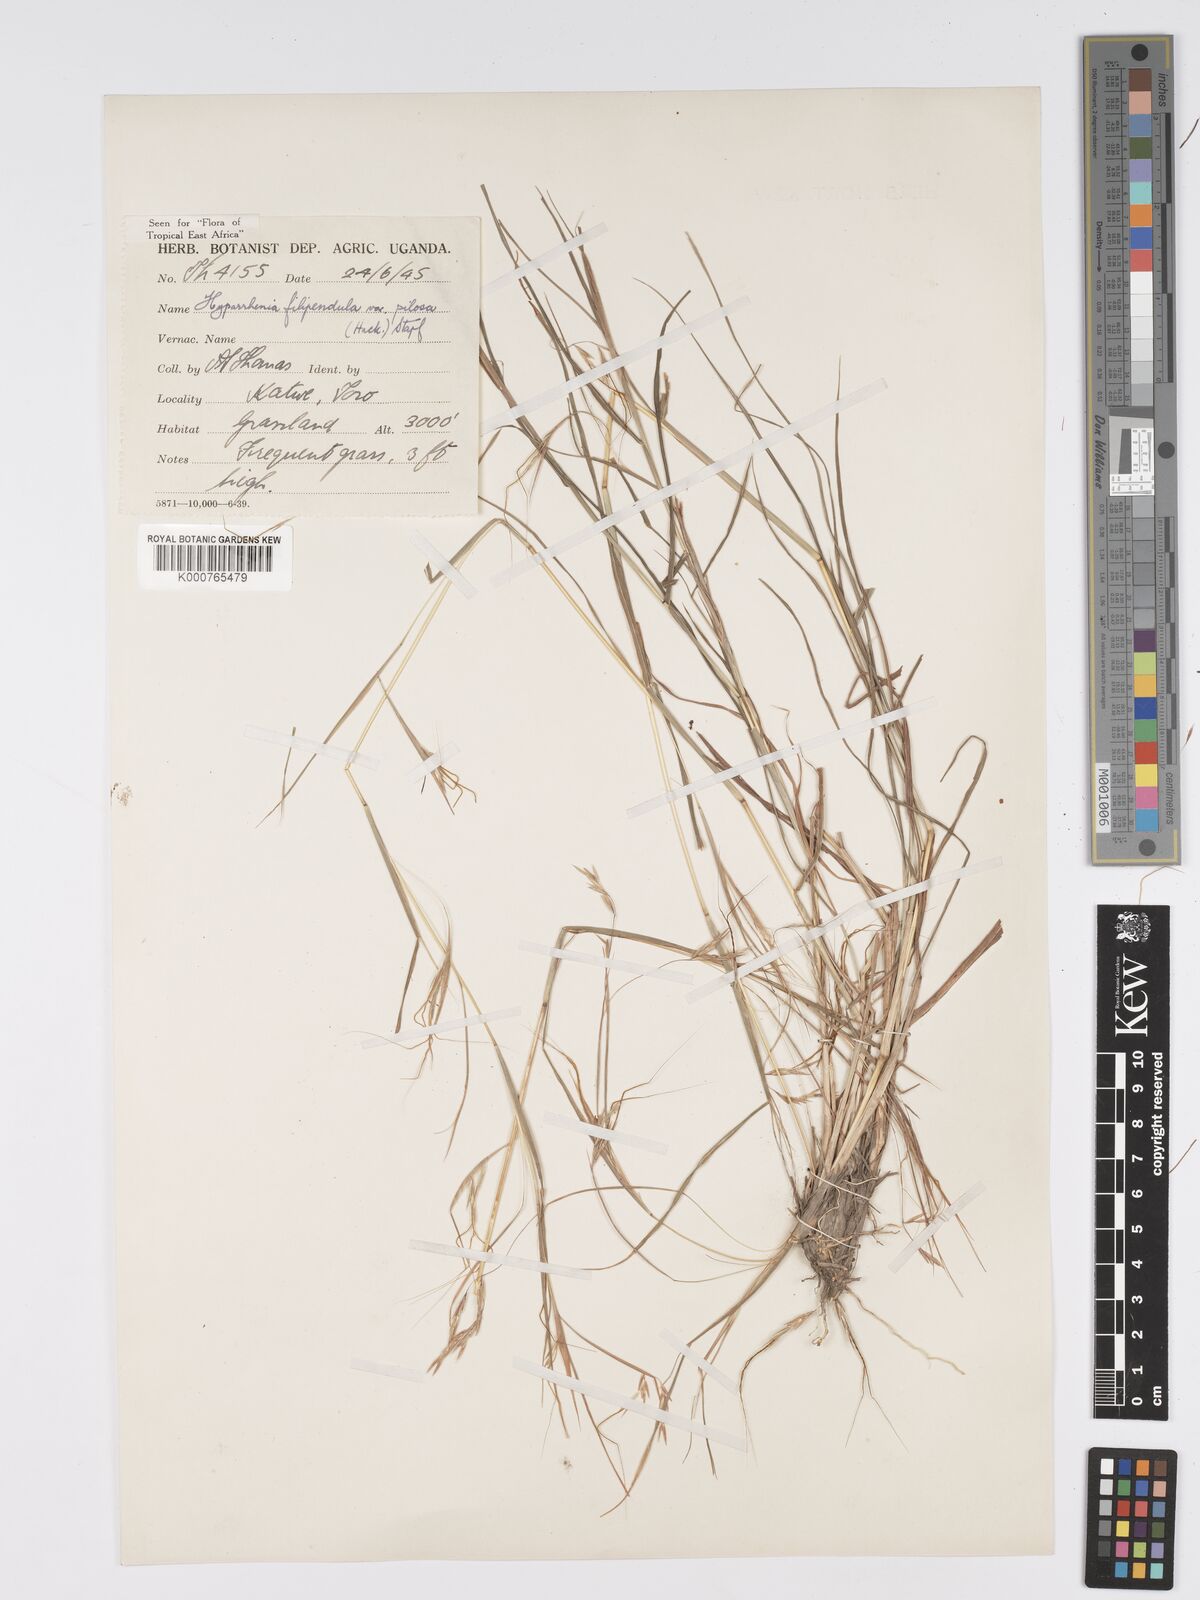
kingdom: Plantae
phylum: Tracheophyta
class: Liliopsida
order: Poales
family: Poaceae
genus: Hyparrhenia
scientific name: Hyparrhenia filipendula
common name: Tambookie grass
